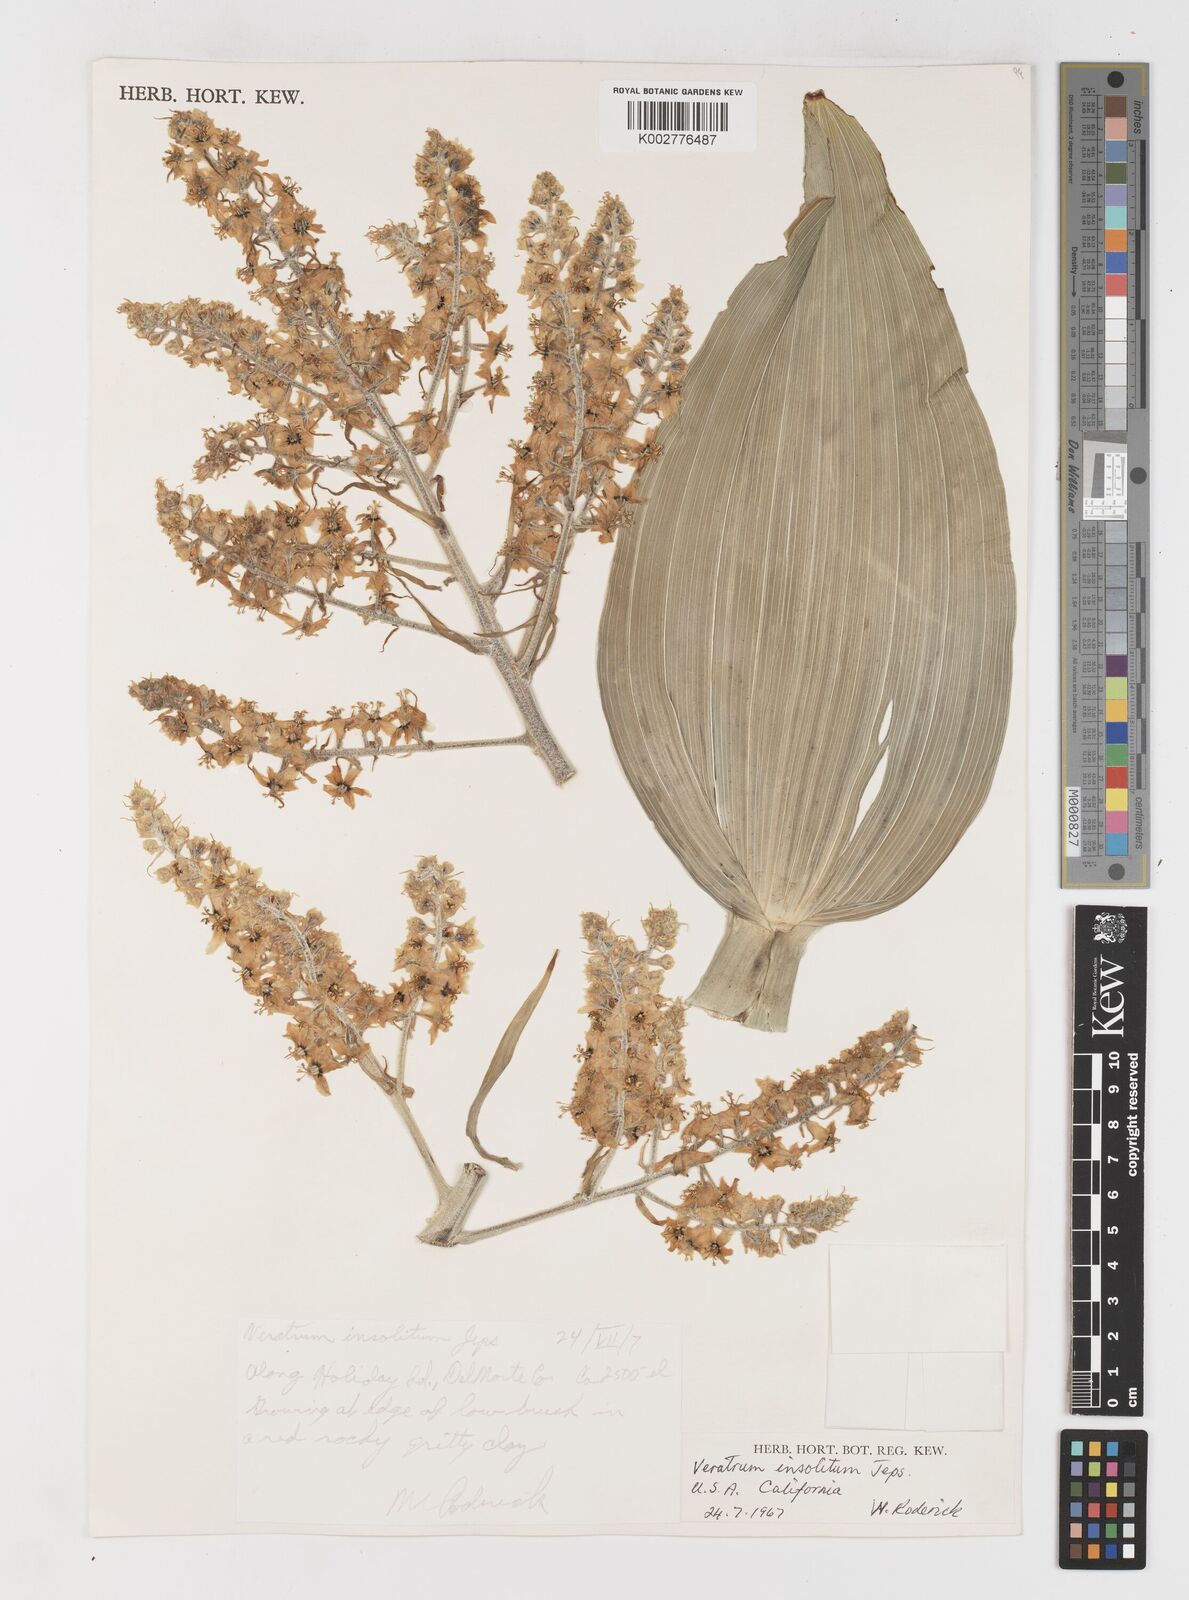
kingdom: Plantae
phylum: Tracheophyta
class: Liliopsida
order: Liliales
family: Melanthiaceae
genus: Veratrum
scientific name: Veratrum insolitum
